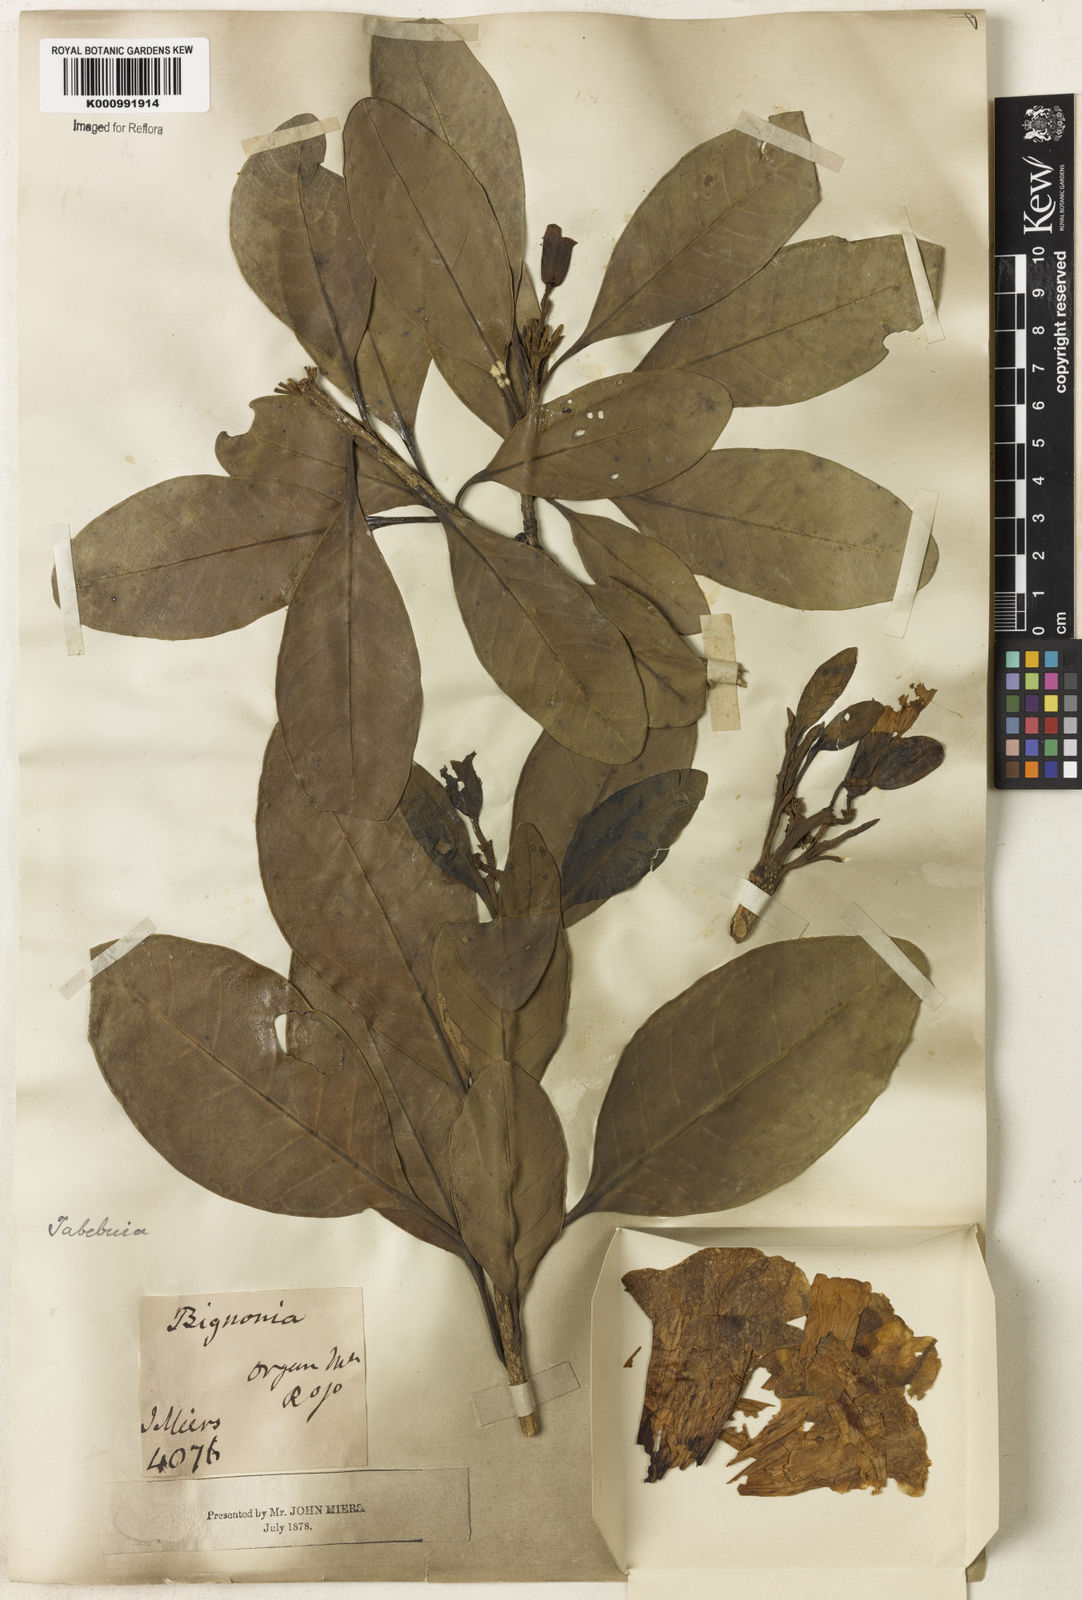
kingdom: Plantae
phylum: Tracheophyta
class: Magnoliopsida
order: Lamiales
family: Bignoniaceae
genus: Tabebuia
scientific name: Tabebuia cassinoides
